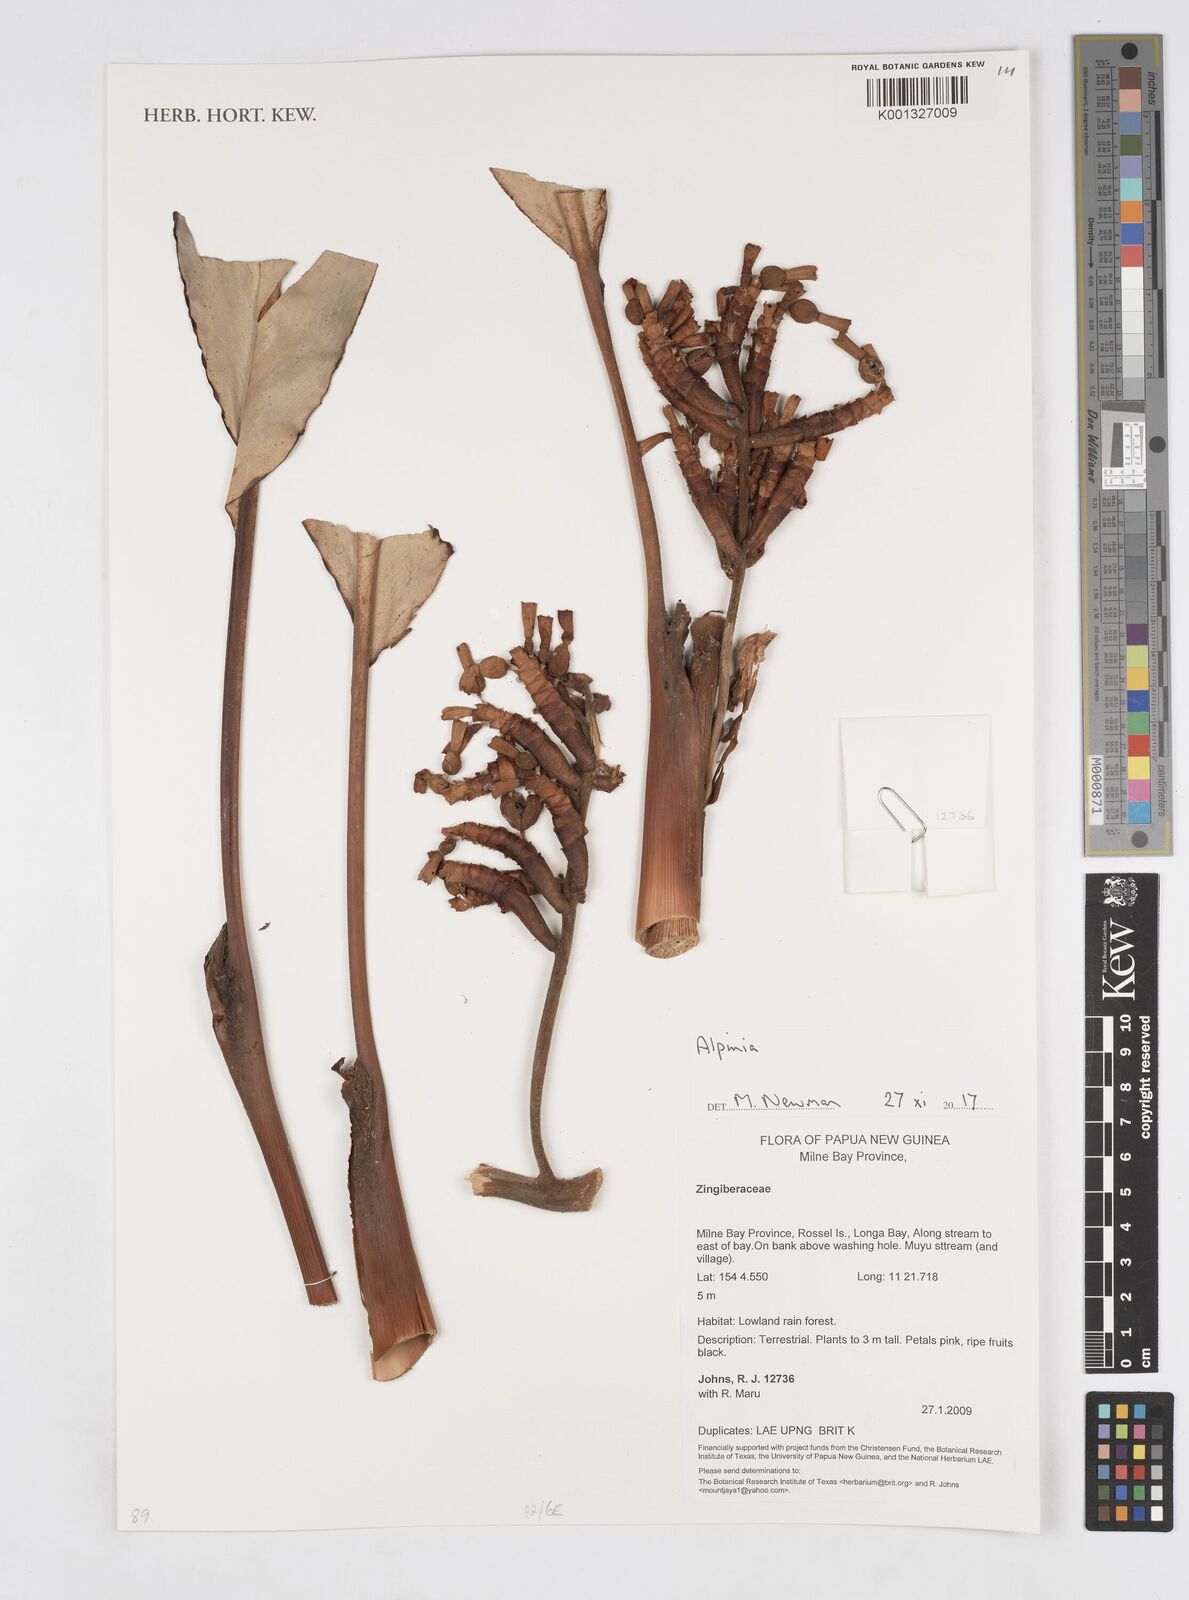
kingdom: Plantae
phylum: Tracheophyta
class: Liliopsida
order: Zingiberales
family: Zingiberaceae
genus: Alpinia
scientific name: Alpinia
